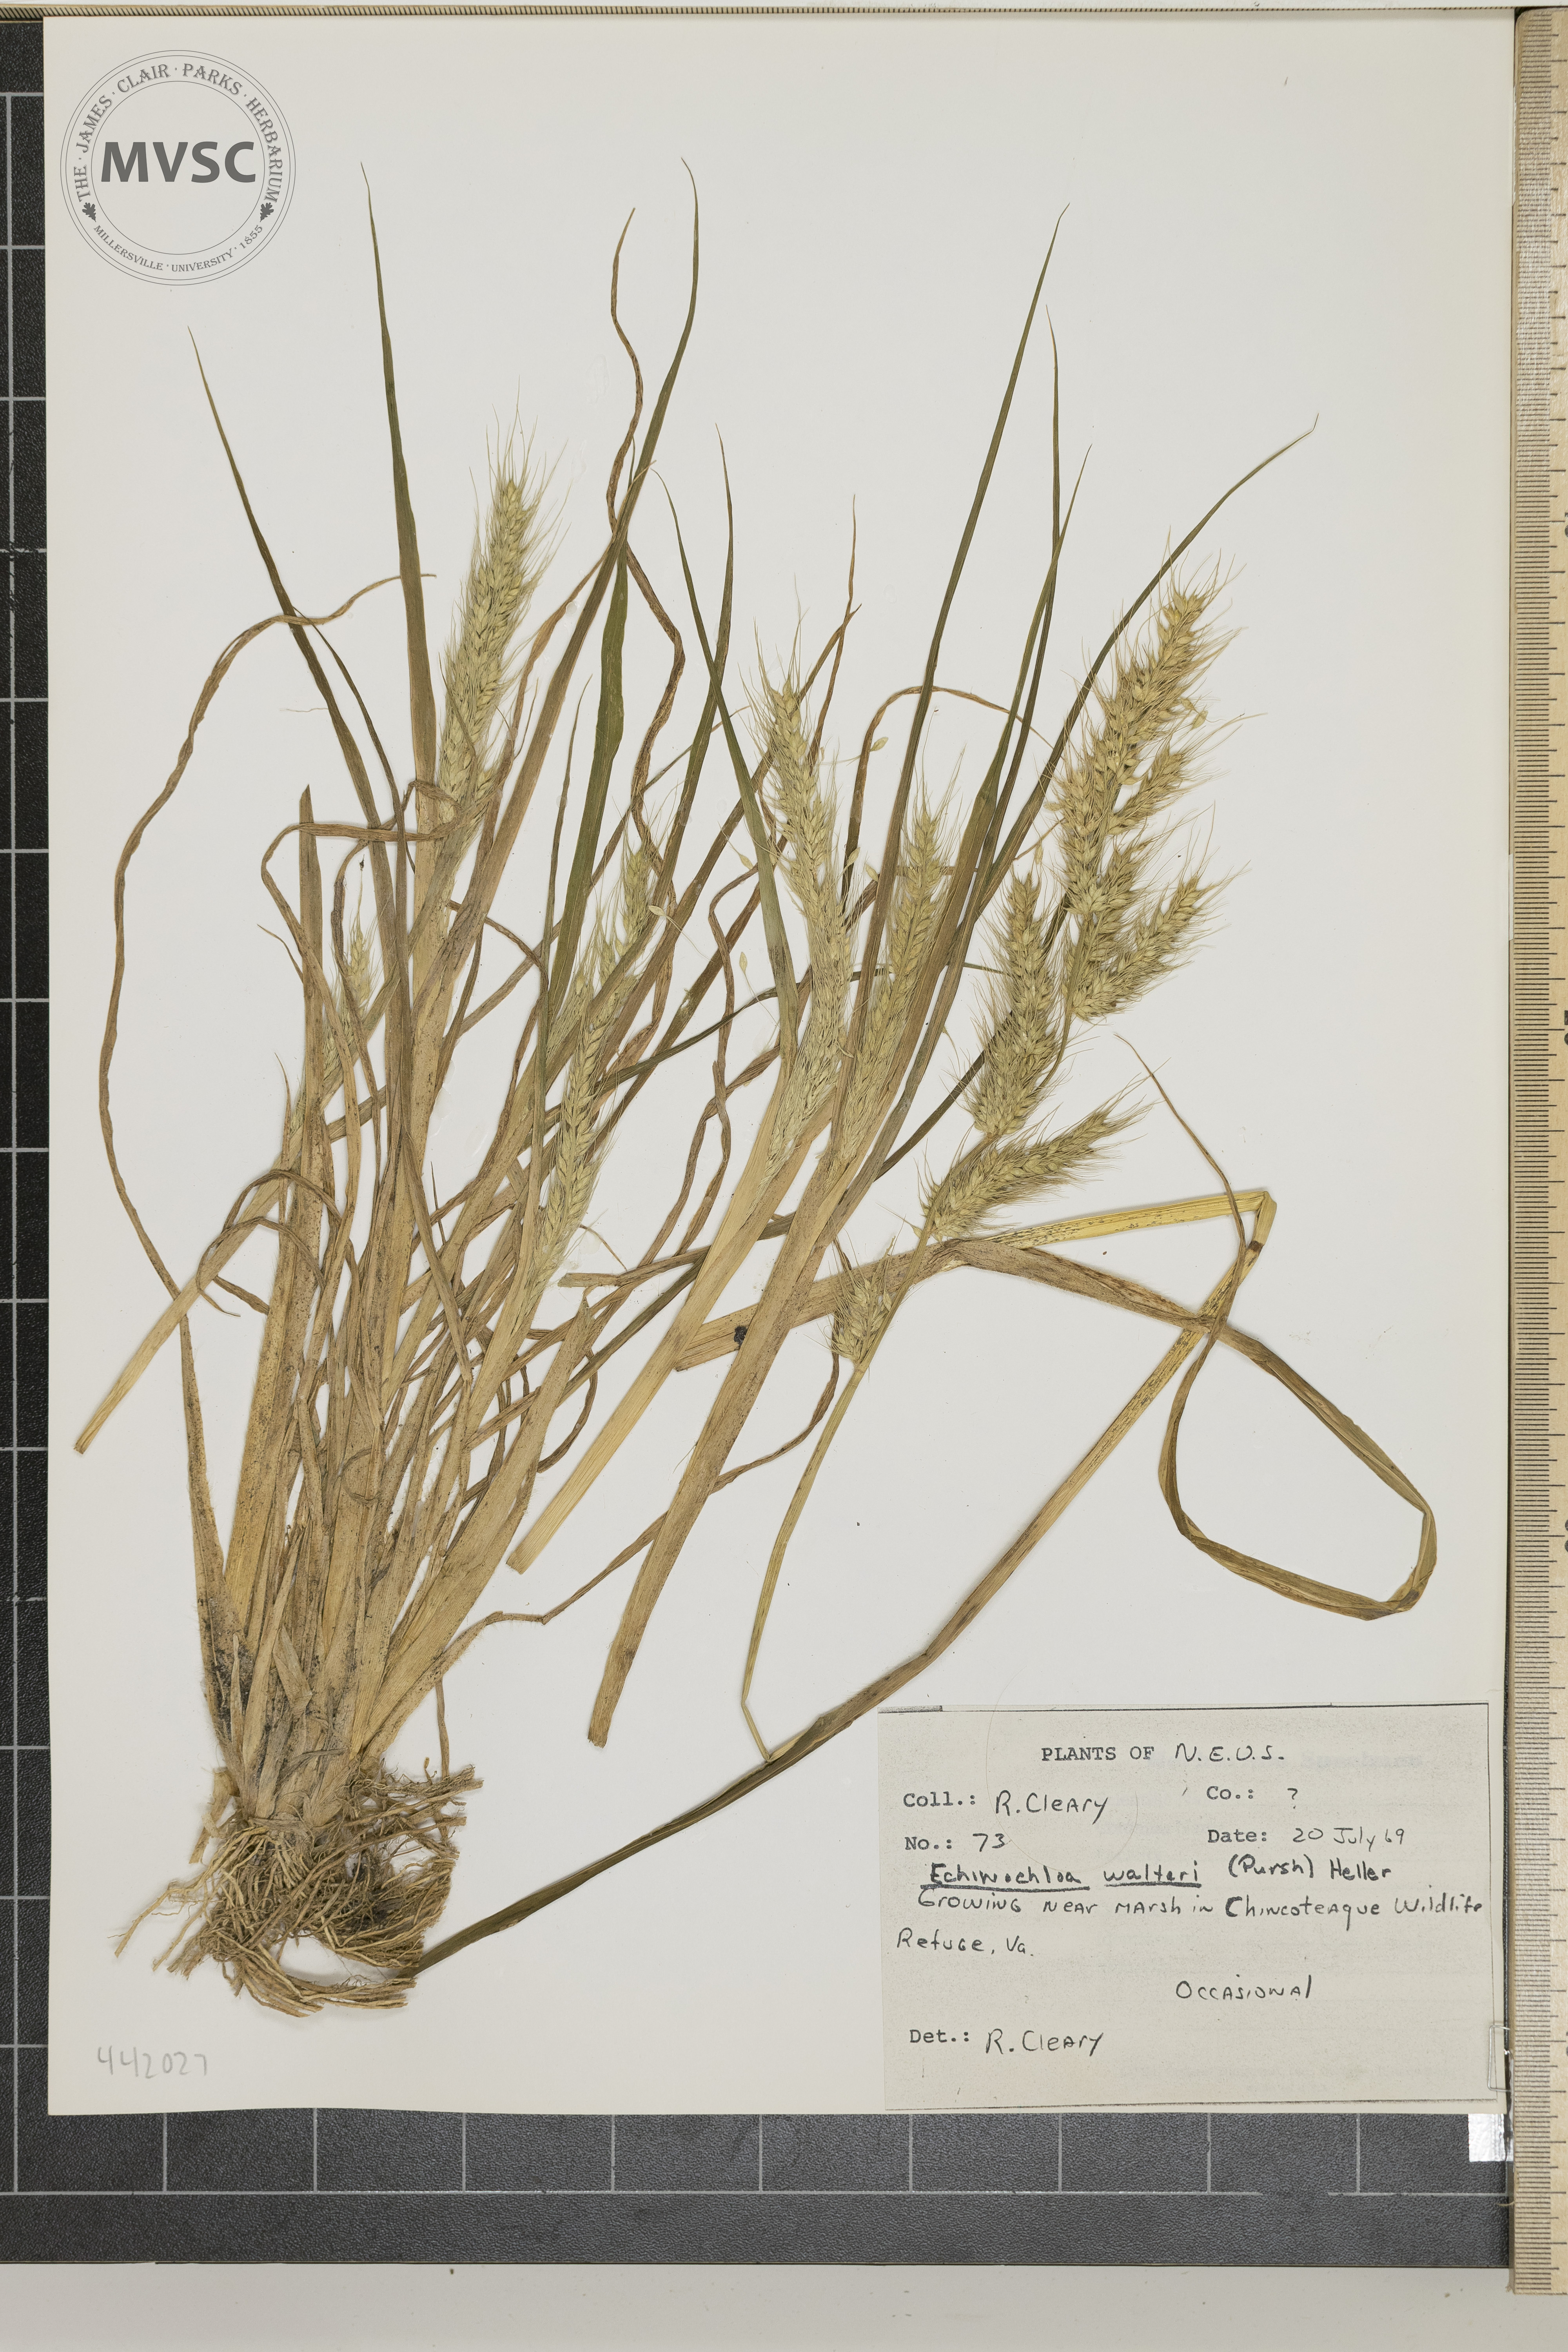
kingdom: Plantae
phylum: Tracheophyta
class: Liliopsida
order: Poales
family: Poaceae
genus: Echinochloa
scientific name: Echinochloa walteri
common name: Coast barnyard grass
